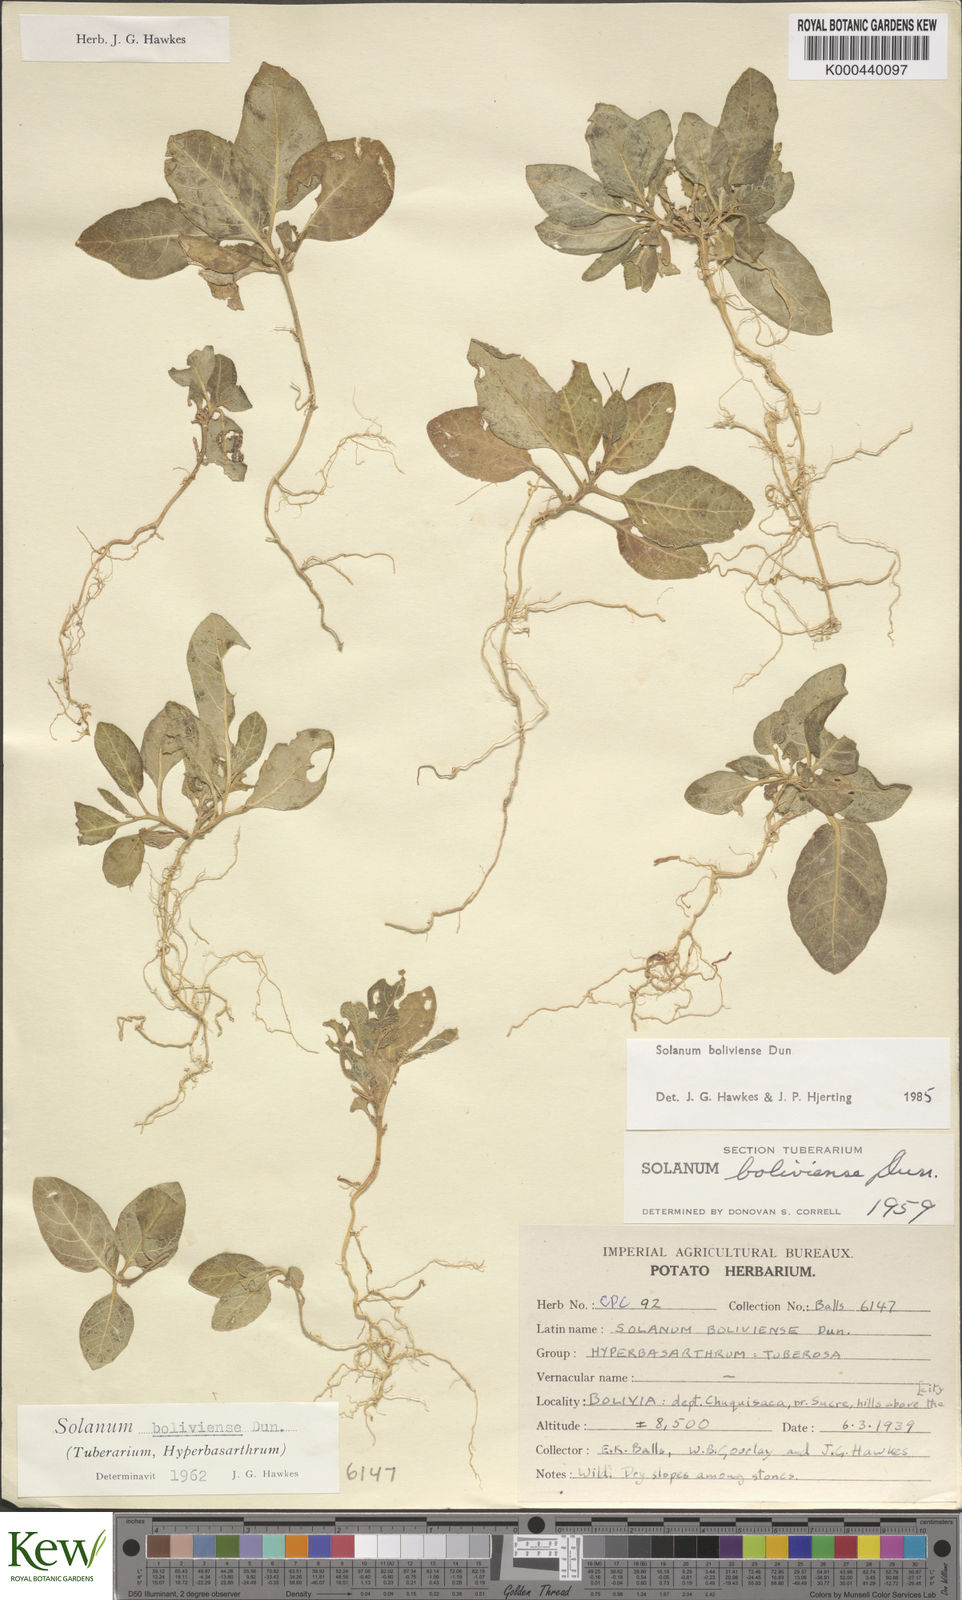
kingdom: Plantae
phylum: Tracheophyta
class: Magnoliopsida
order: Solanales
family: Solanaceae
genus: Solanum
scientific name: Solanum boliviense
